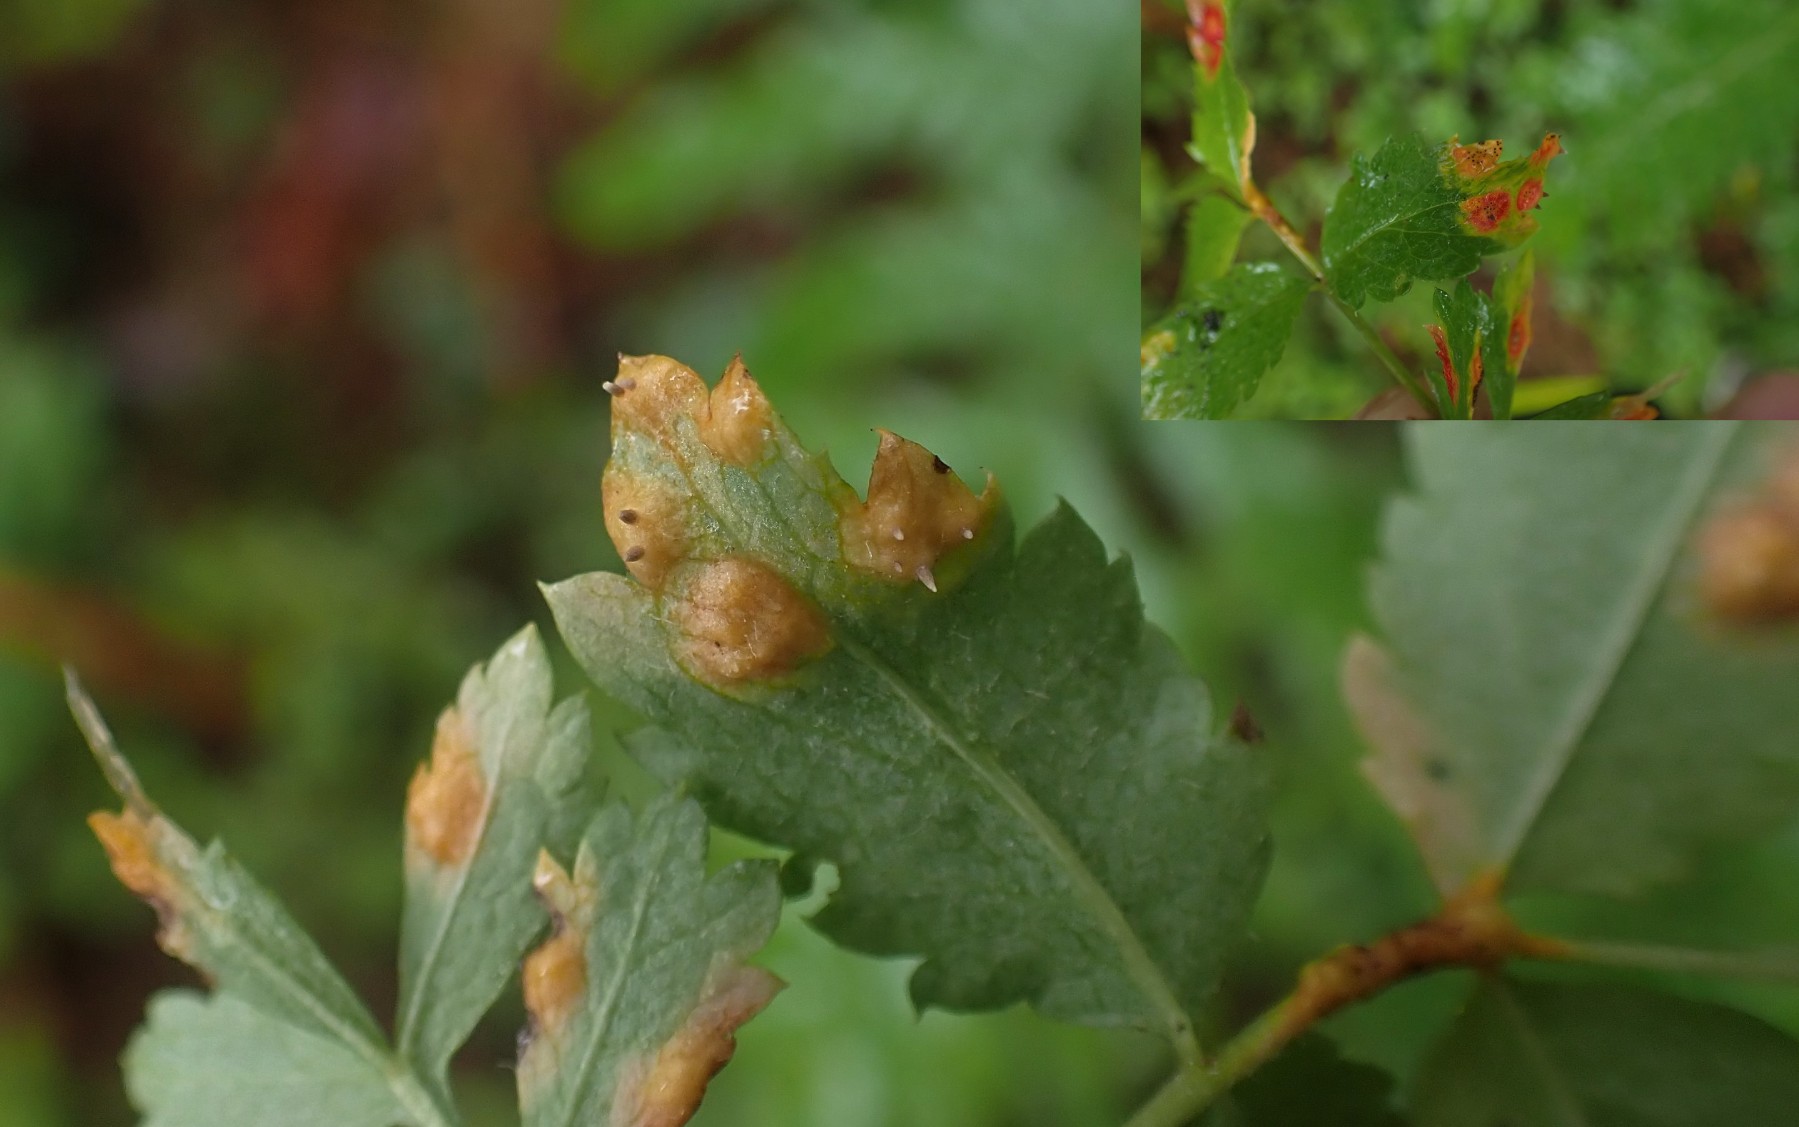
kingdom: Fungi
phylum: Basidiomycota
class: Pucciniomycetes
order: Pucciniales
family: Gymnosporangiaceae
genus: Gymnosporangium
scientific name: Gymnosporangium cornutum
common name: rønnehorn-bævrerust
